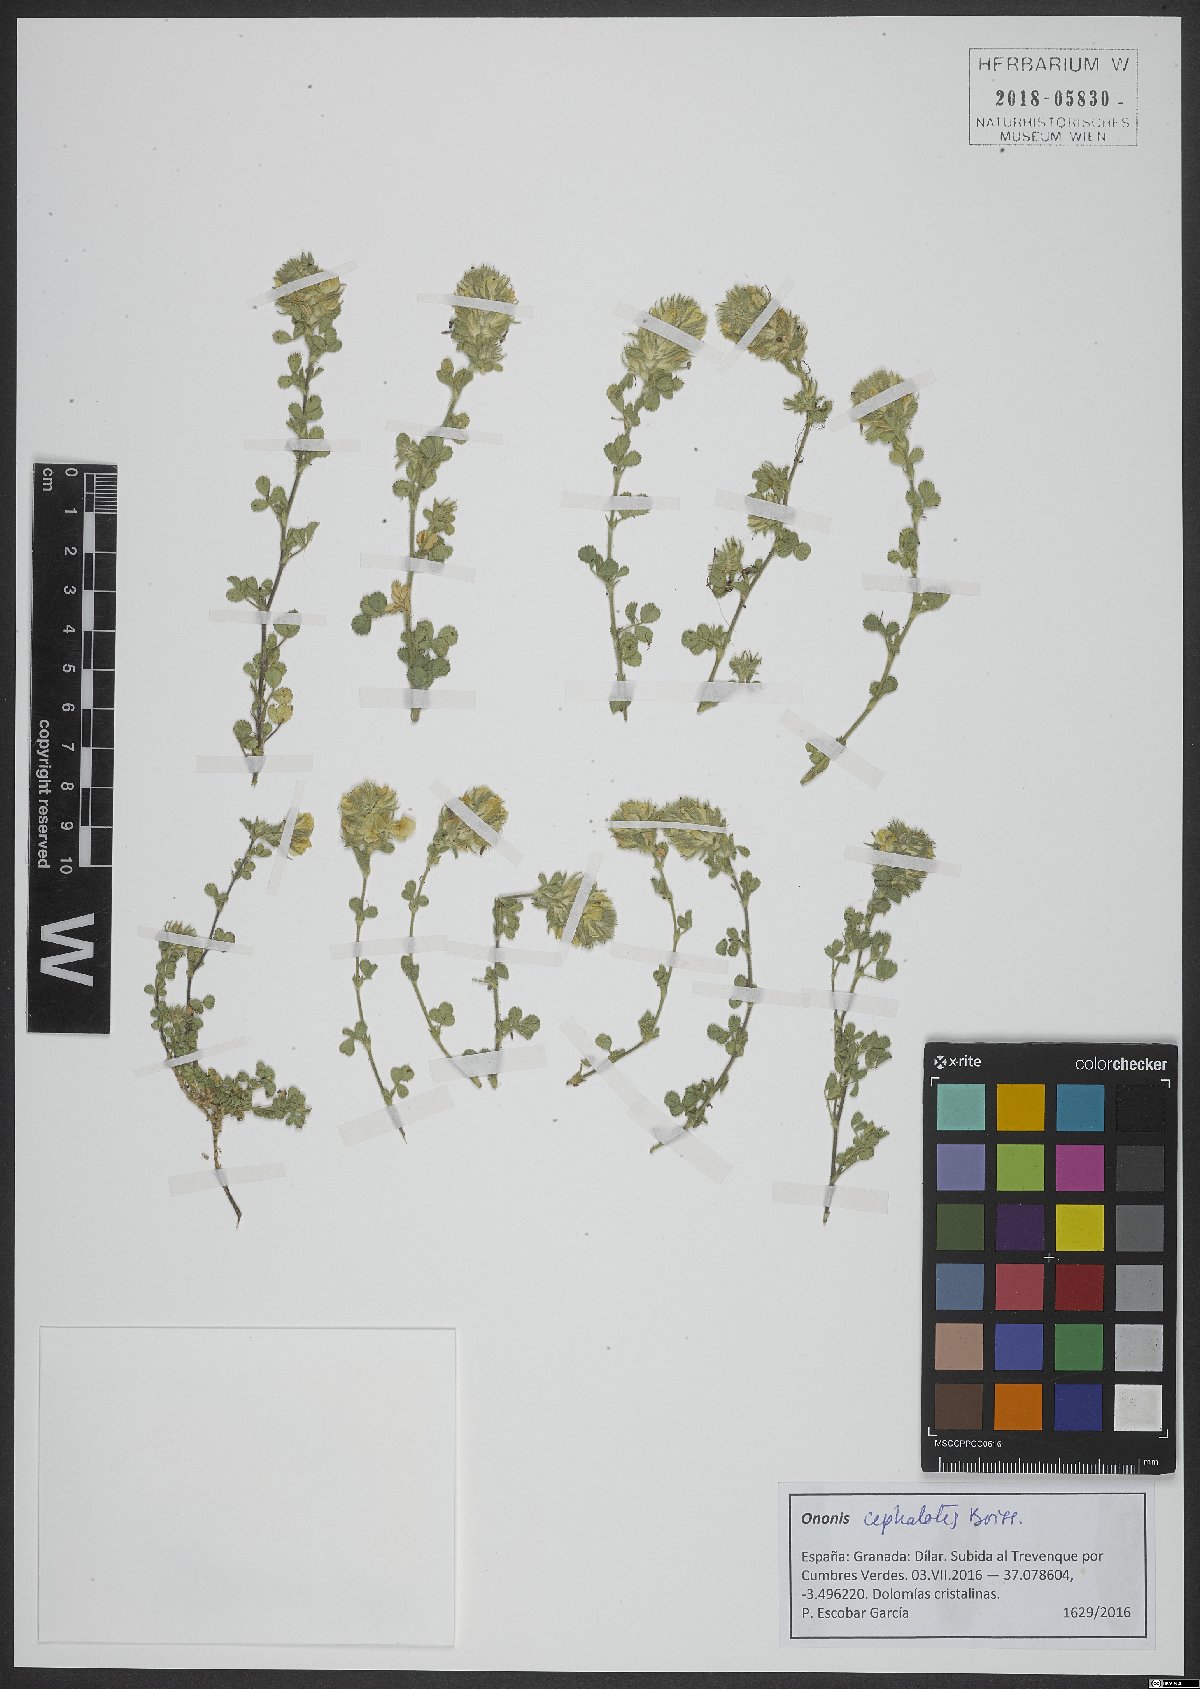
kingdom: Plantae
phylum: Tracheophyta
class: Magnoliopsida
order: Fabales
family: Fabaceae
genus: Ononis
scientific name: Ononis cephalotes
